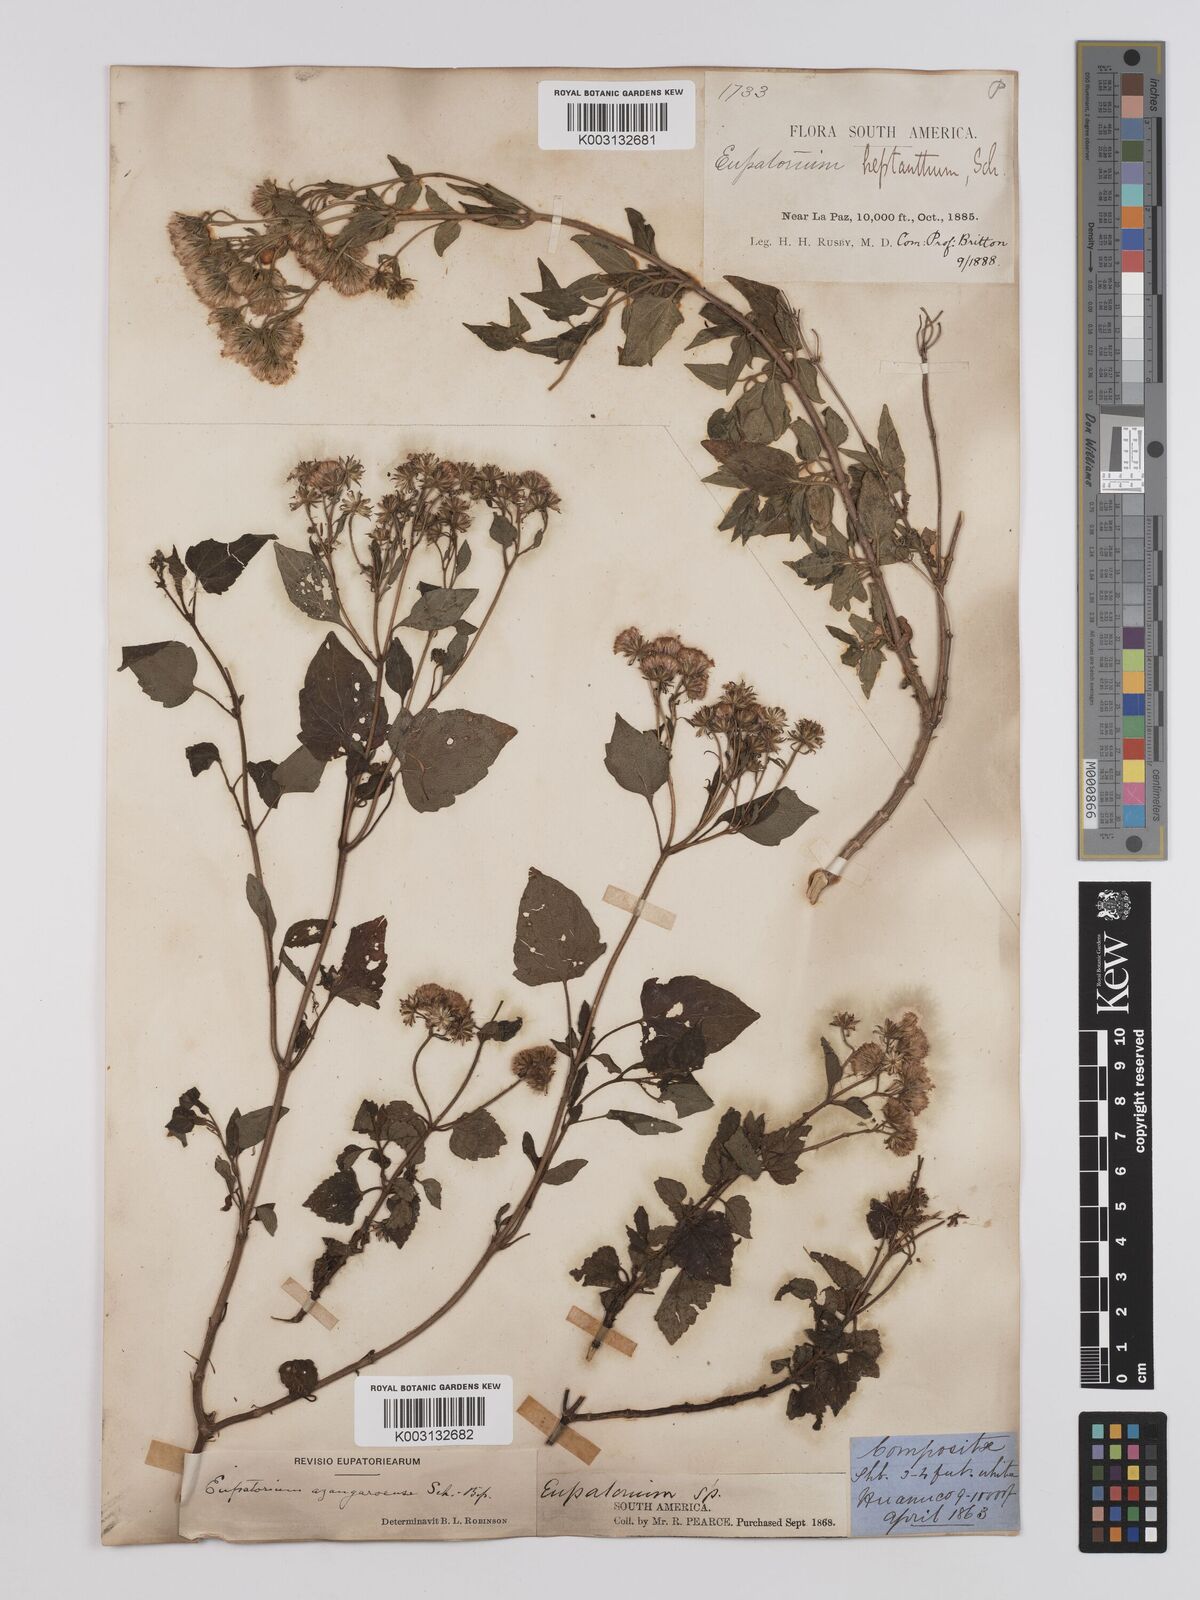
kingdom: Plantae
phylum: Tracheophyta
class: Magnoliopsida
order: Asterales
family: Asteraceae
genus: Ageratina
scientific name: Ageratina glechonophylla
